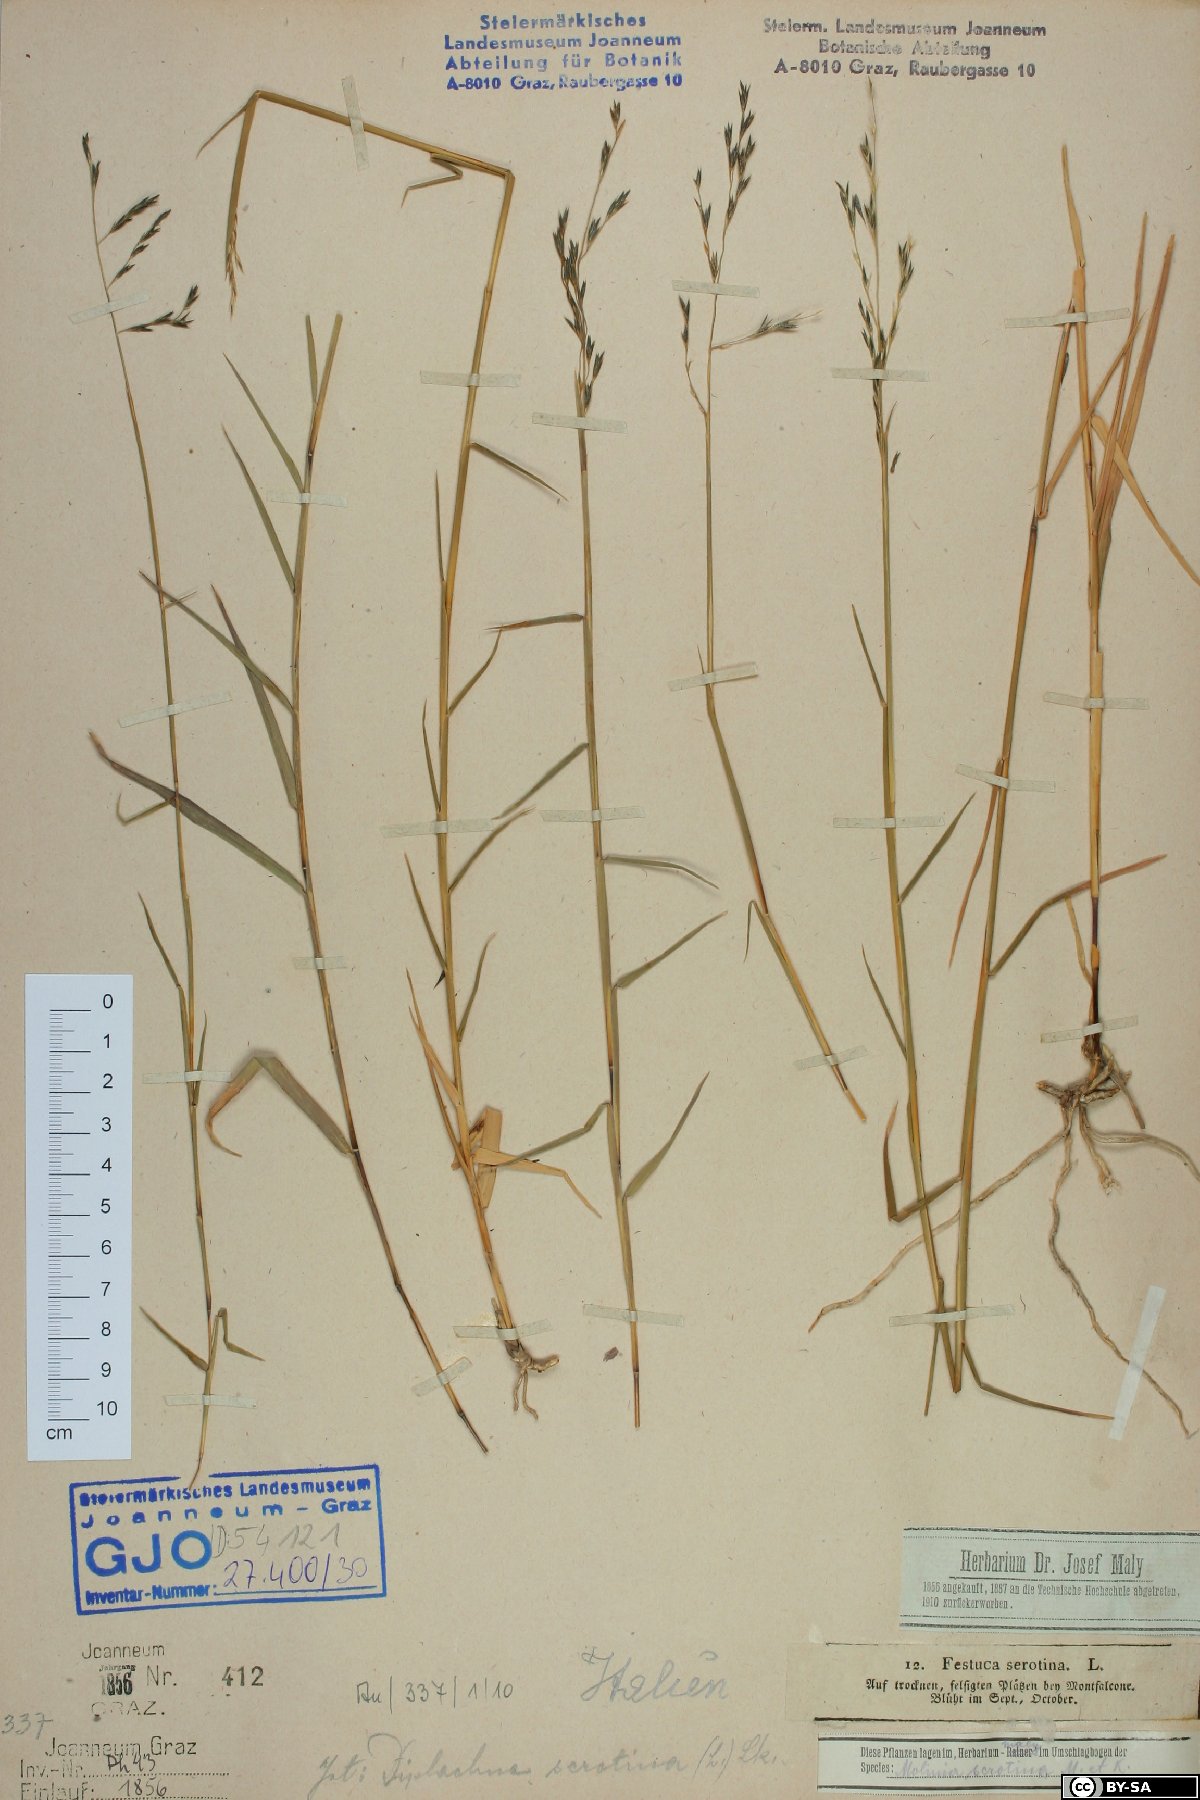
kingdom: Plantae
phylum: Tracheophyta
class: Liliopsida
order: Poales
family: Poaceae
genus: Cleistogenes
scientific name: Cleistogenes serotina
